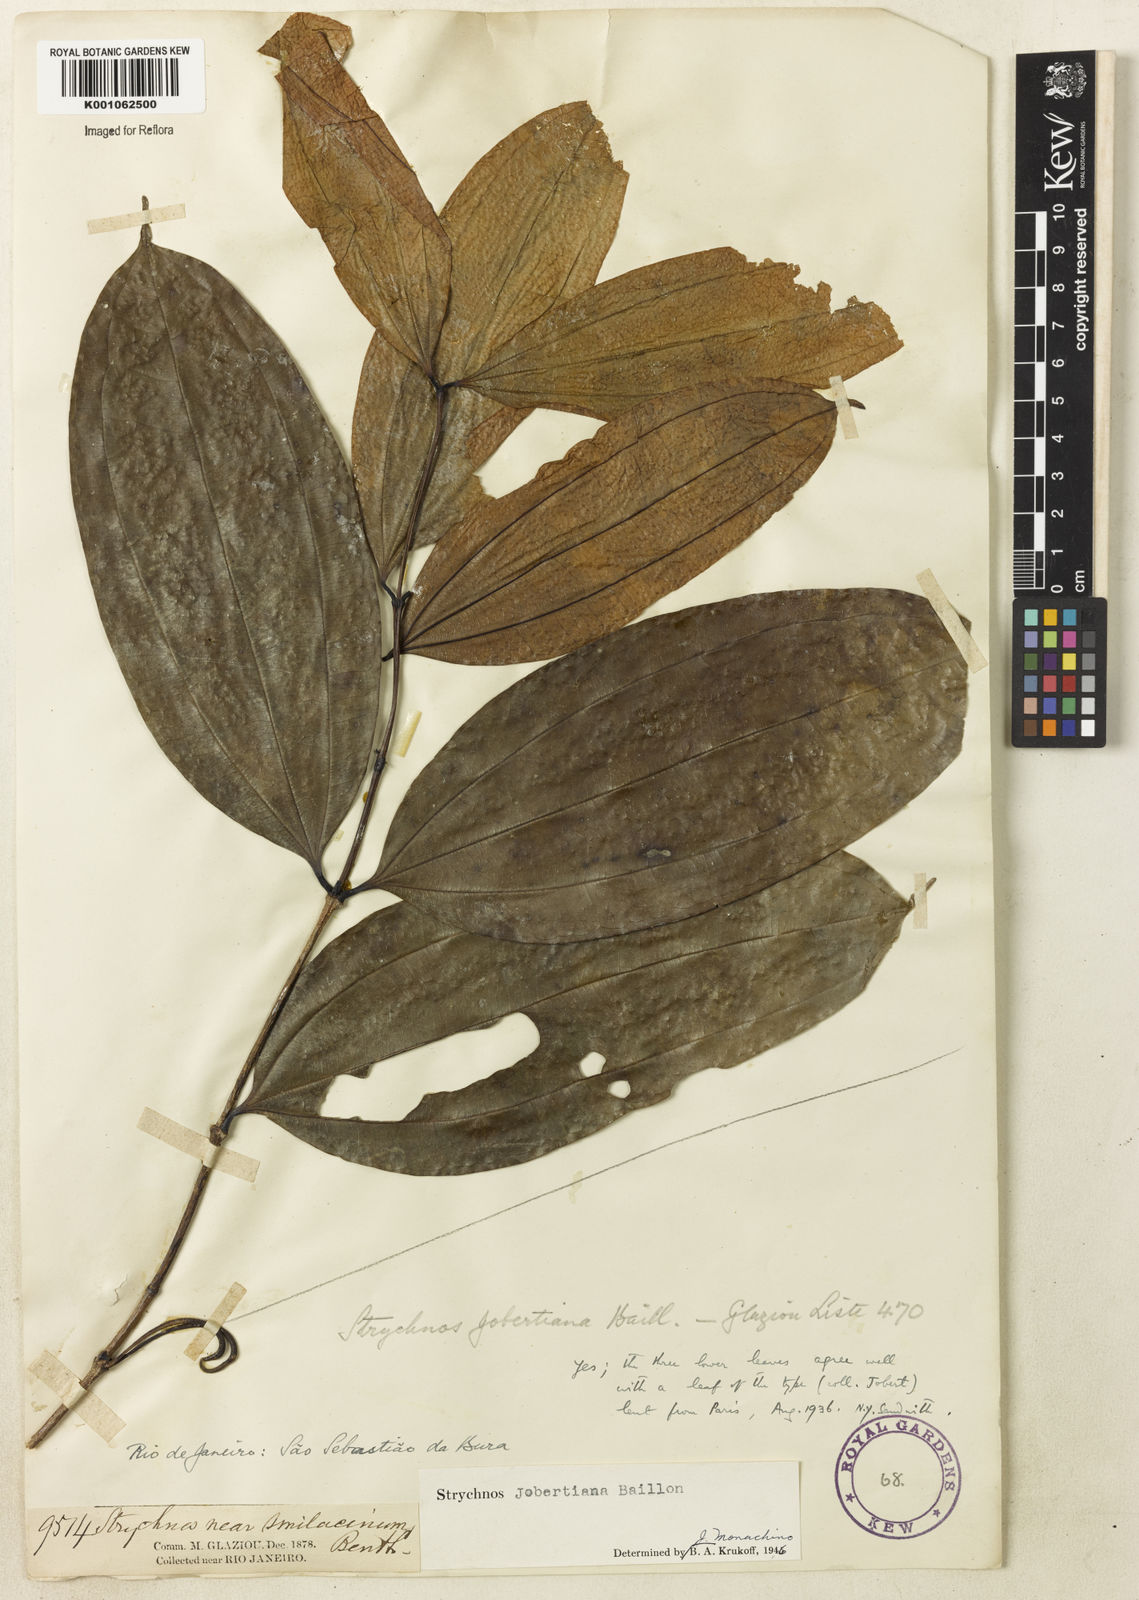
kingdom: Plantae
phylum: Tracheophyta
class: Magnoliopsida
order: Gentianales
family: Loganiaceae
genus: Strychnos
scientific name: Strychnos jobertiana
